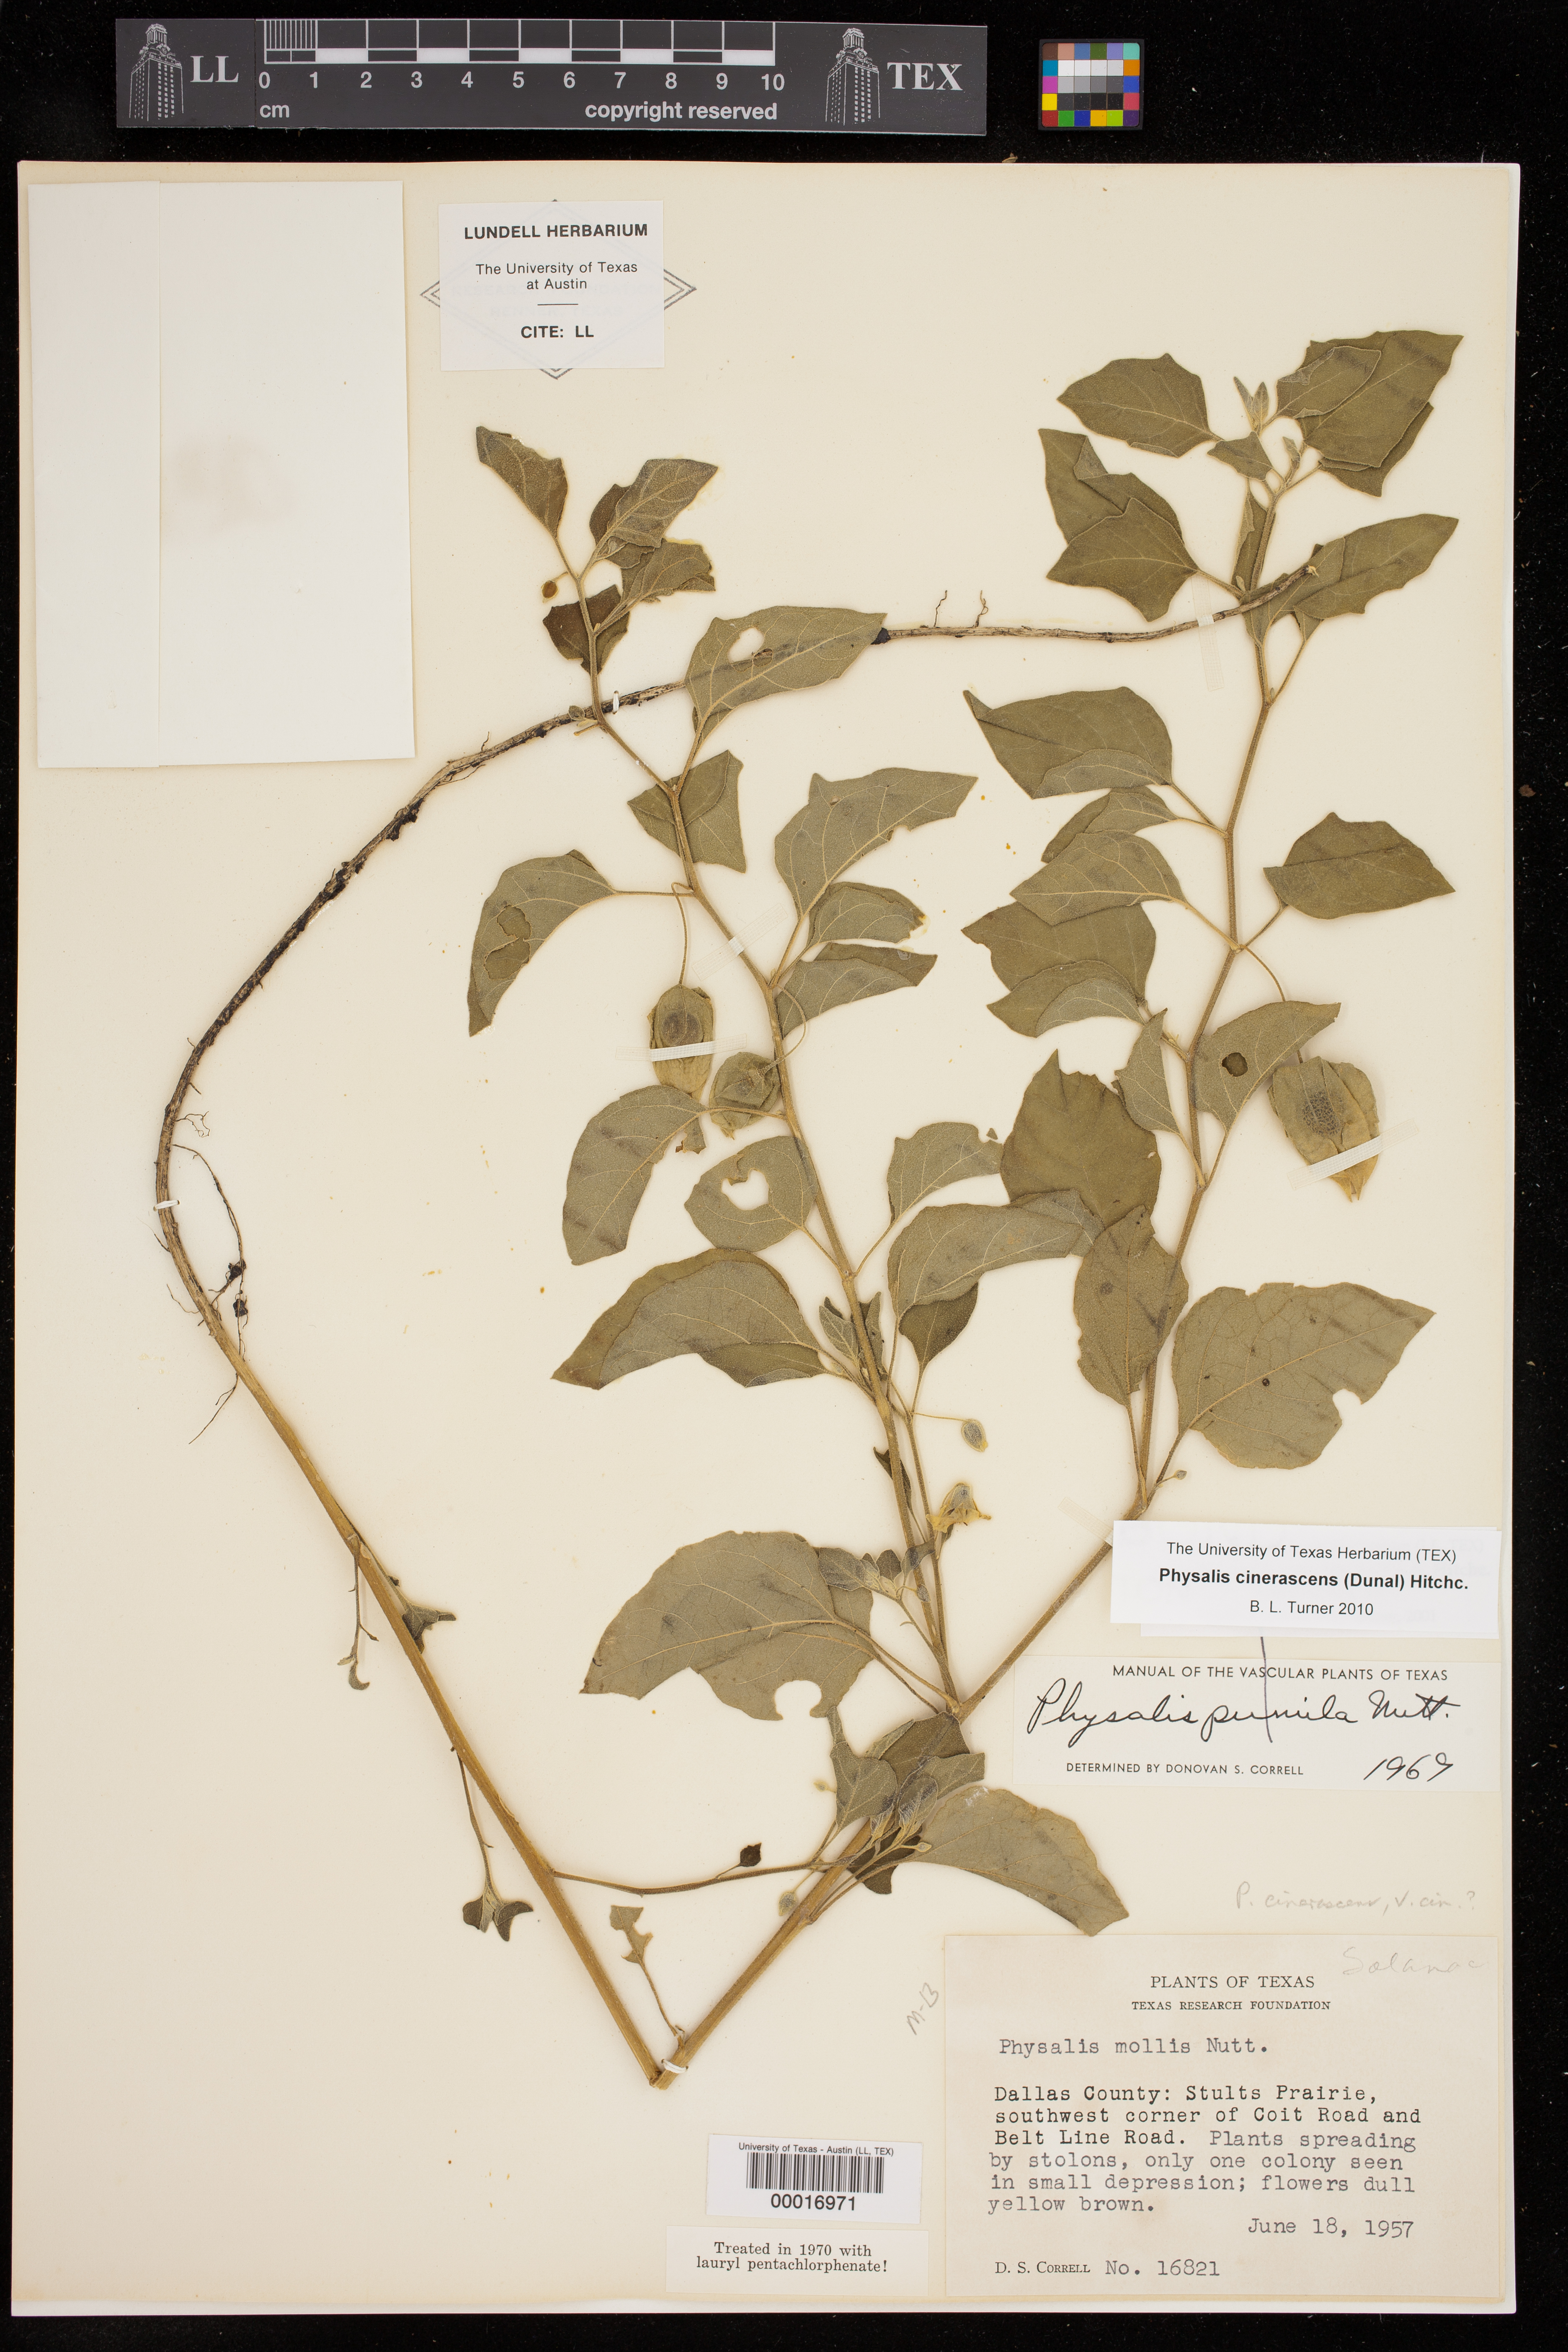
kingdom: Plantae
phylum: Tracheophyta
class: Magnoliopsida
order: Solanales
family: Solanaceae
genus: Physalis
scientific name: Physalis cinerascens
